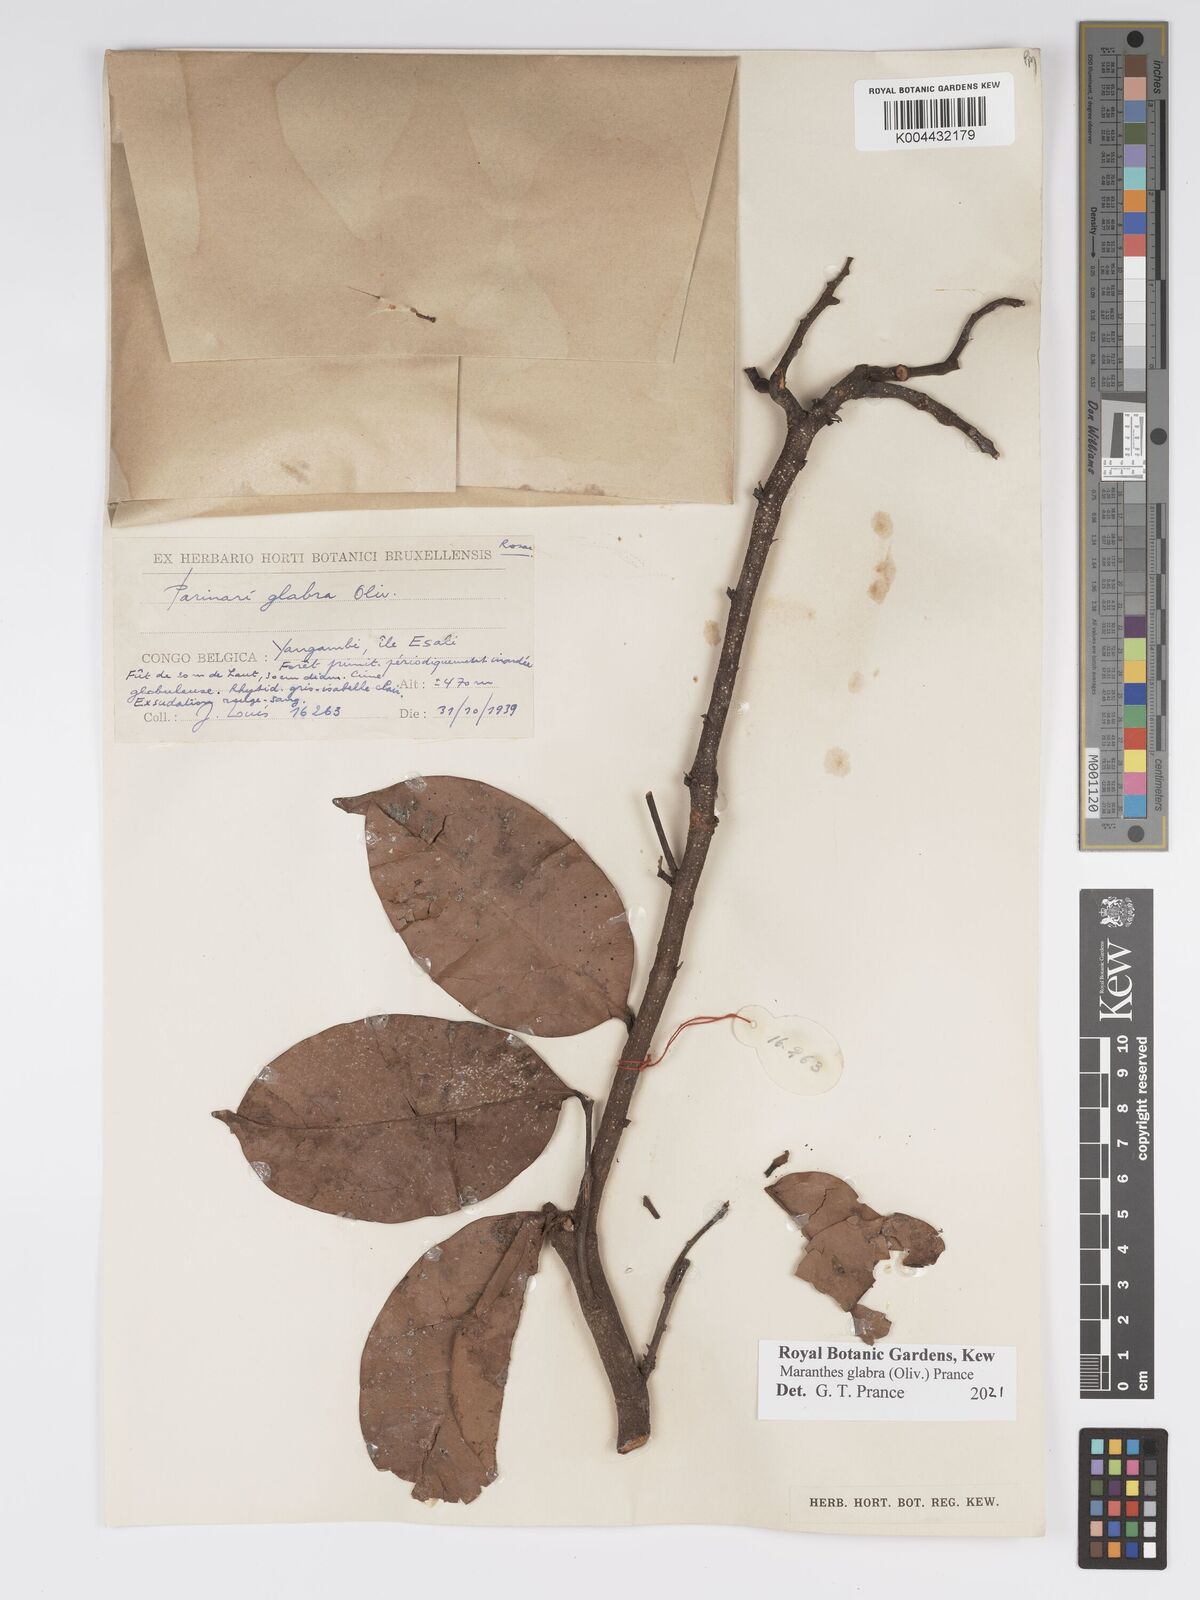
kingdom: Plantae
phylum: Tracheophyta
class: Magnoliopsida
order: Malpighiales
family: Chrysobalanaceae
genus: Maranthes
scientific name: Maranthes glabra
